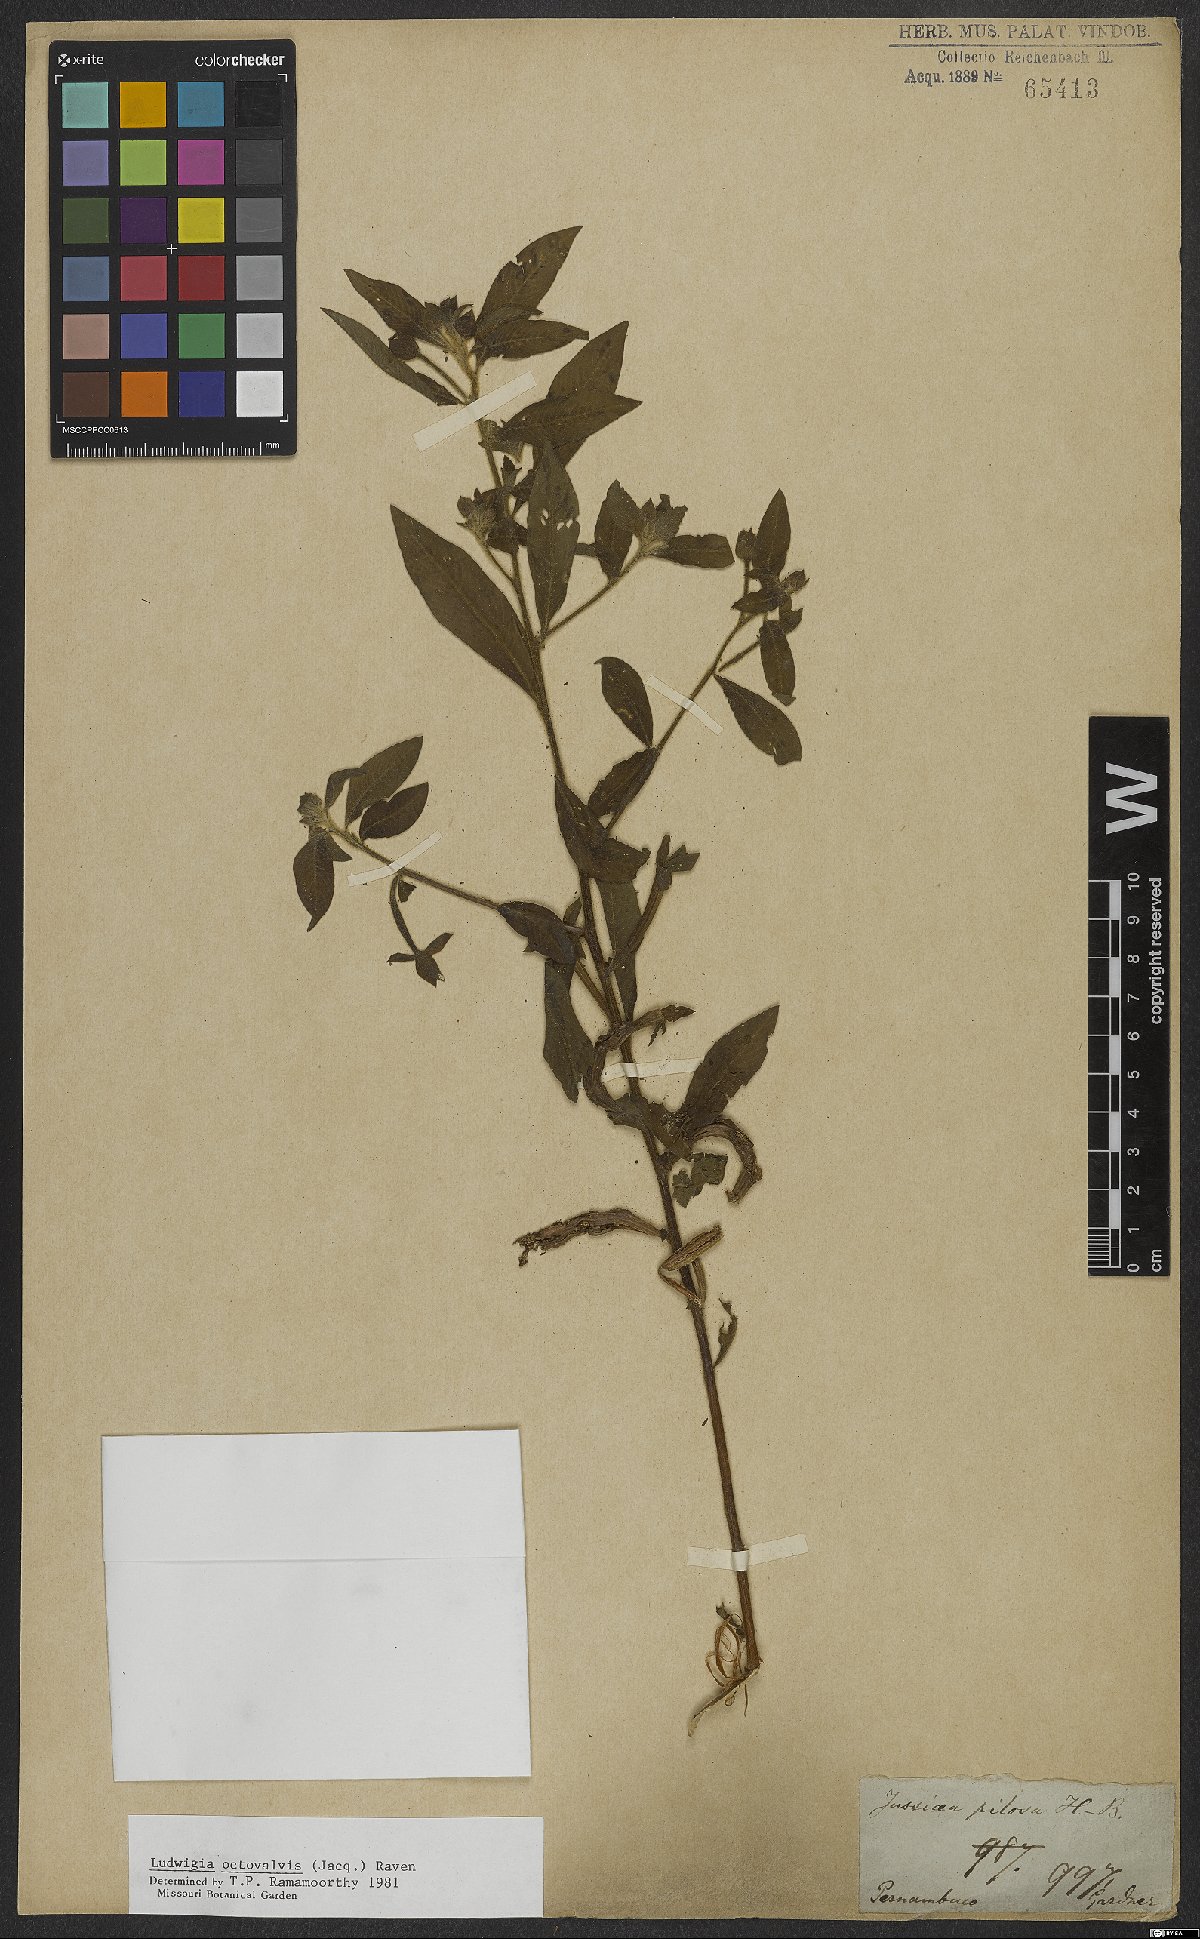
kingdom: Plantae
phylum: Tracheophyta
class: Magnoliopsida
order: Myrtales
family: Onagraceae
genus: Ludwigia
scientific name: Ludwigia octovalvis
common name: Water-primrose
